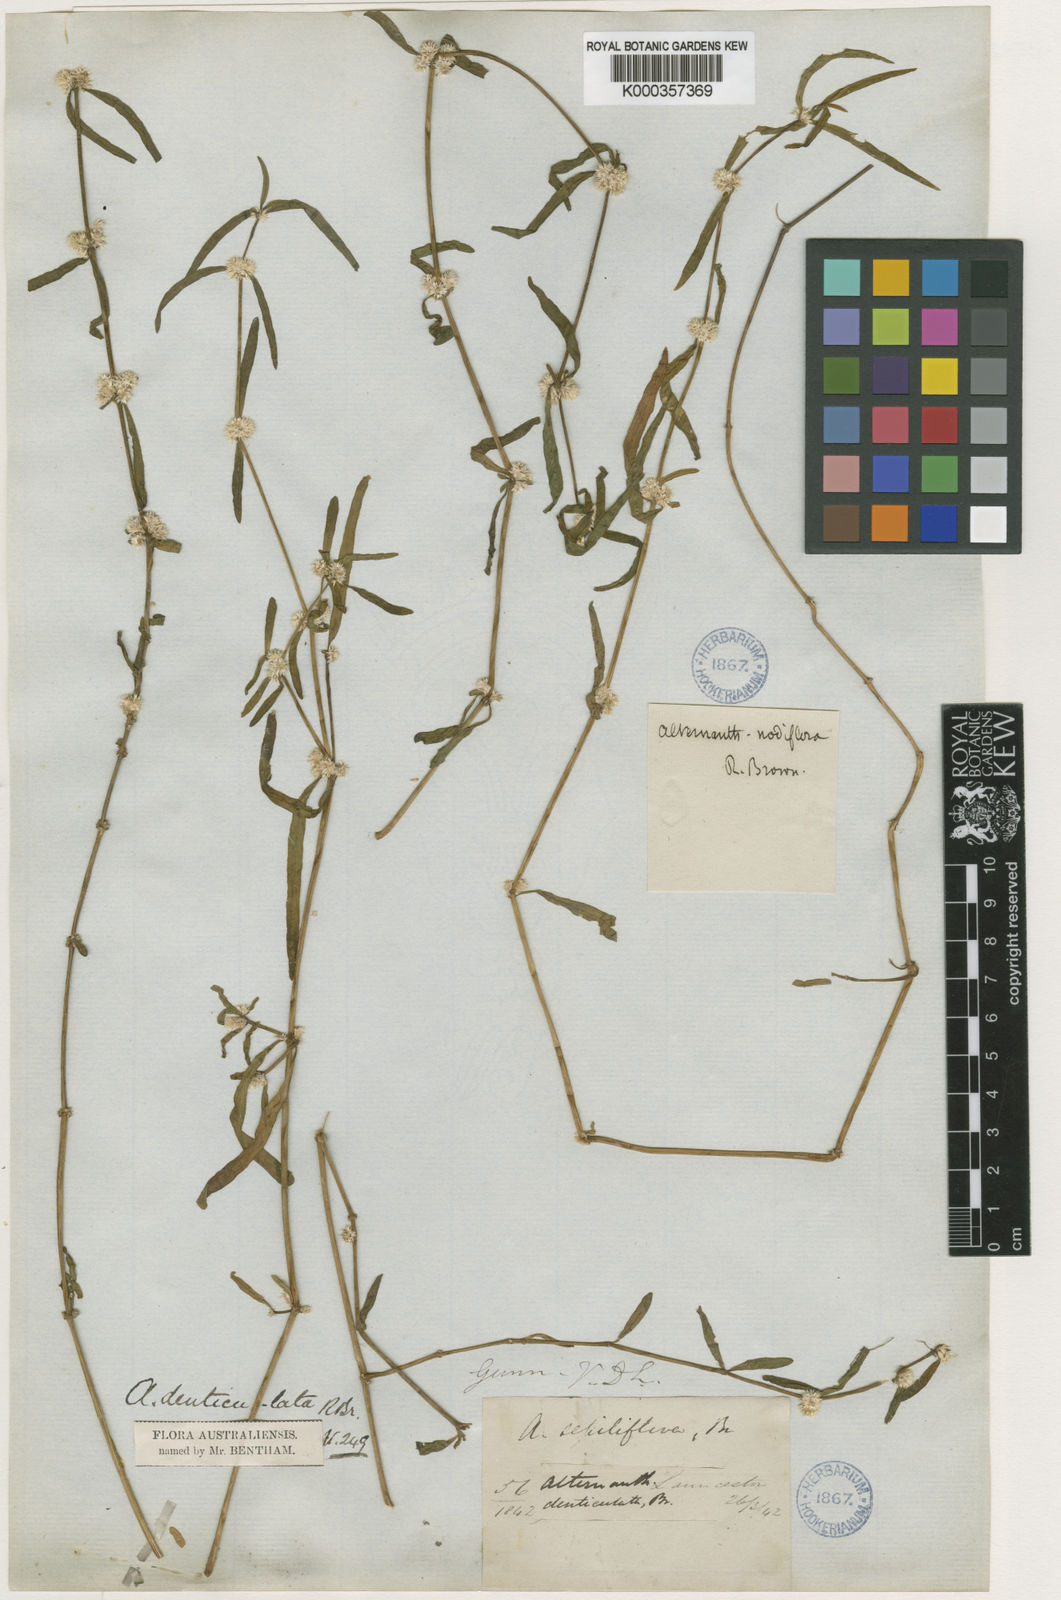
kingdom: Plantae
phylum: Tracheophyta
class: Magnoliopsida
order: Caryophyllales
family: Amaranthaceae
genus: Alternanthera
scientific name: Alternanthera denticulata
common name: Lesser joyweed
